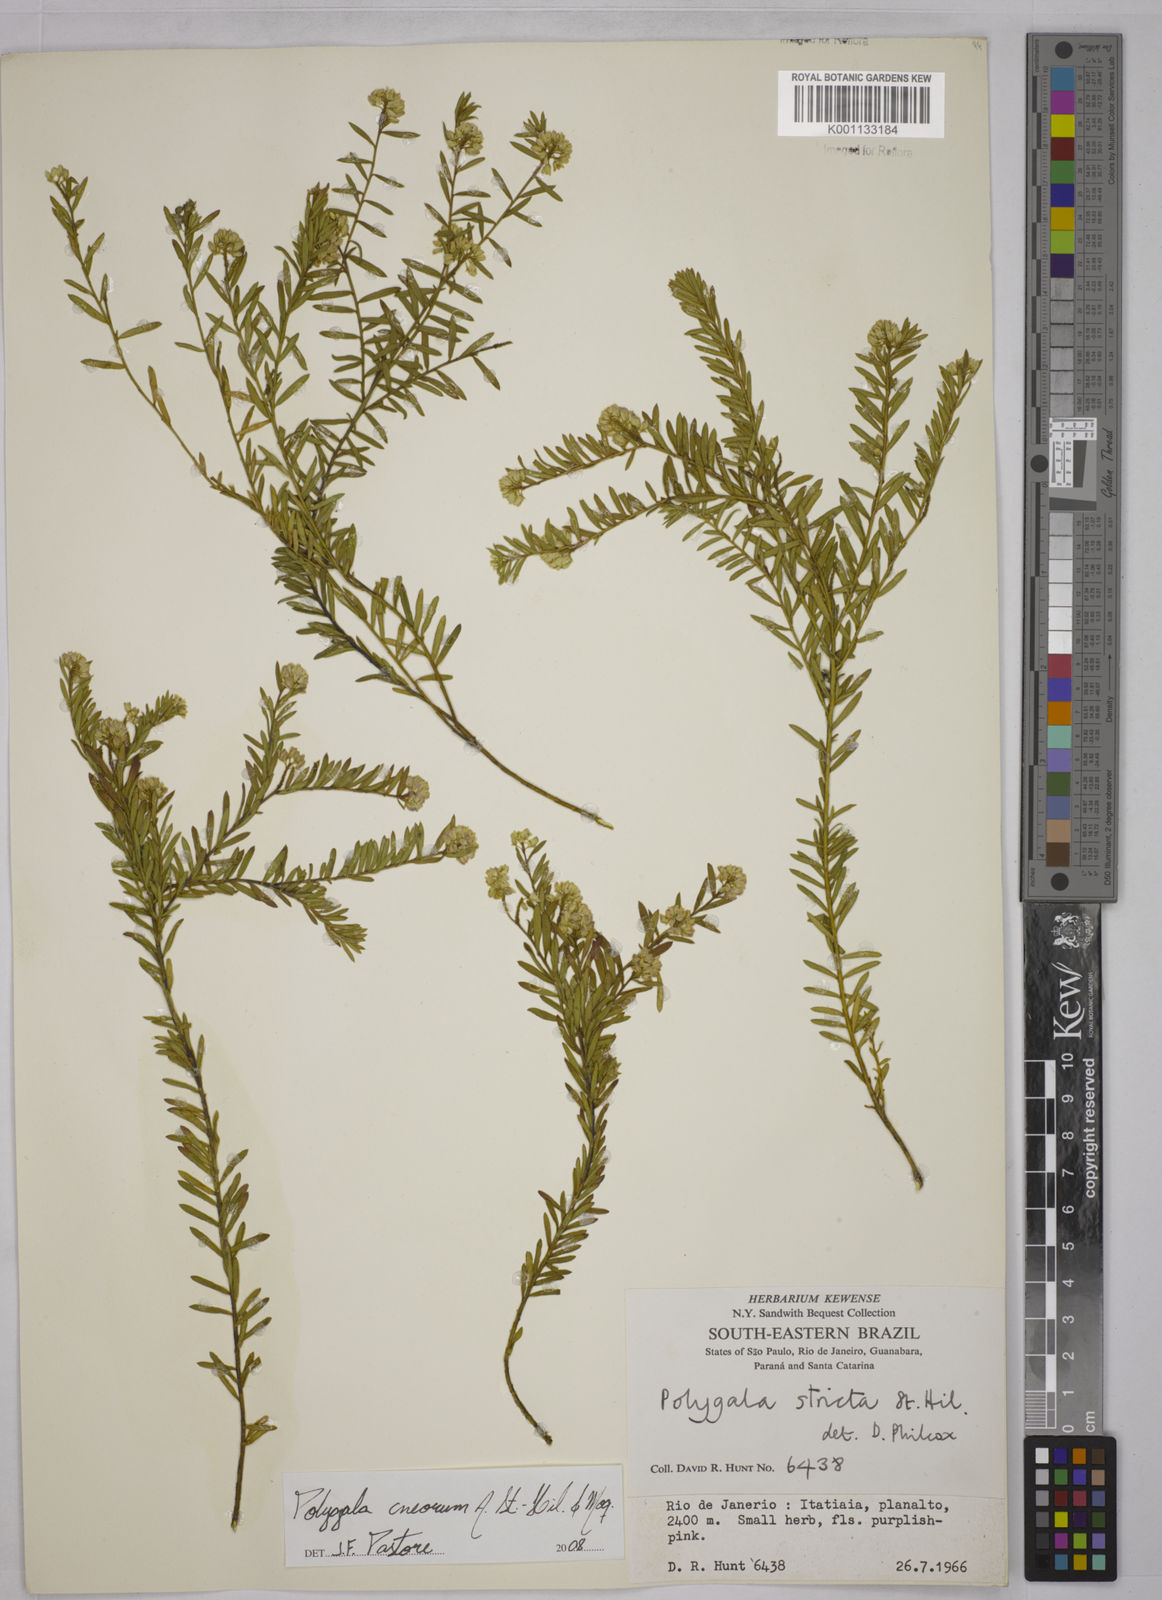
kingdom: Plantae
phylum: Tracheophyta
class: Magnoliopsida
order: Fabales
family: Polygalaceae
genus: Polygala
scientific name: Polygala cneorum
